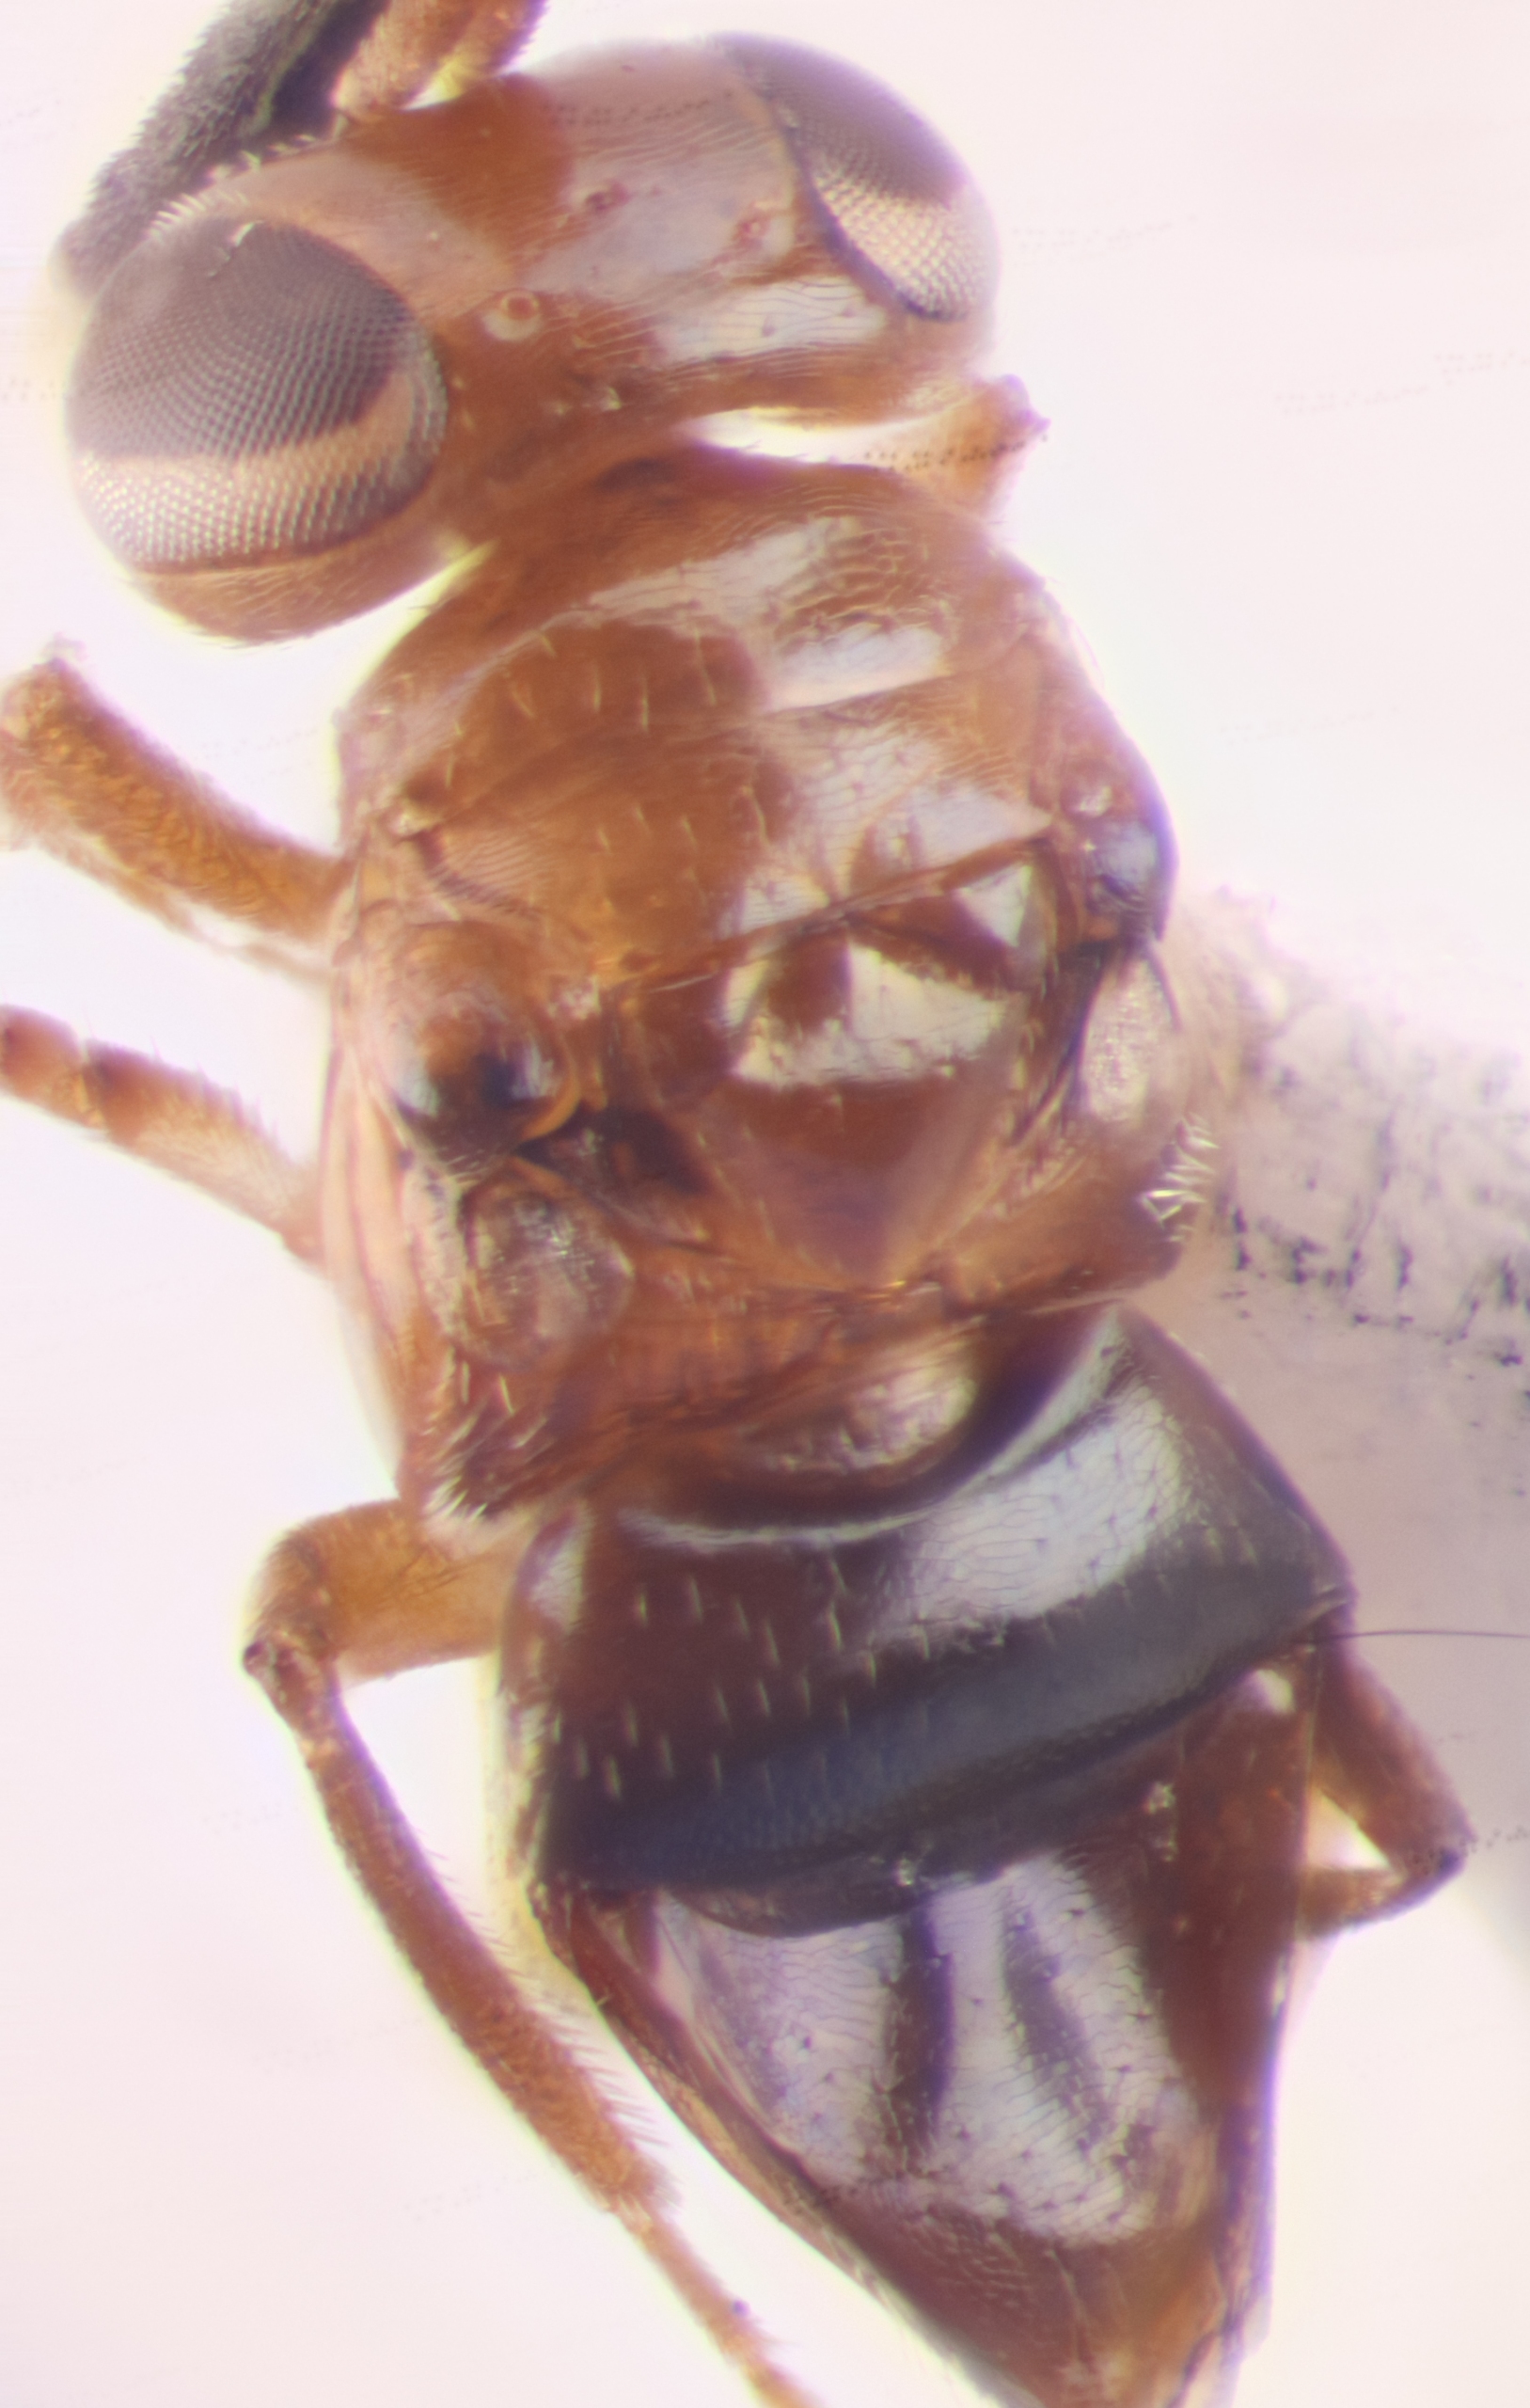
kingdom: Animalia
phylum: Arthropoda
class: Insecta
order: Hymenoptera
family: Encyrtidae
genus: Aglyptus
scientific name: Aglyptus rufus
